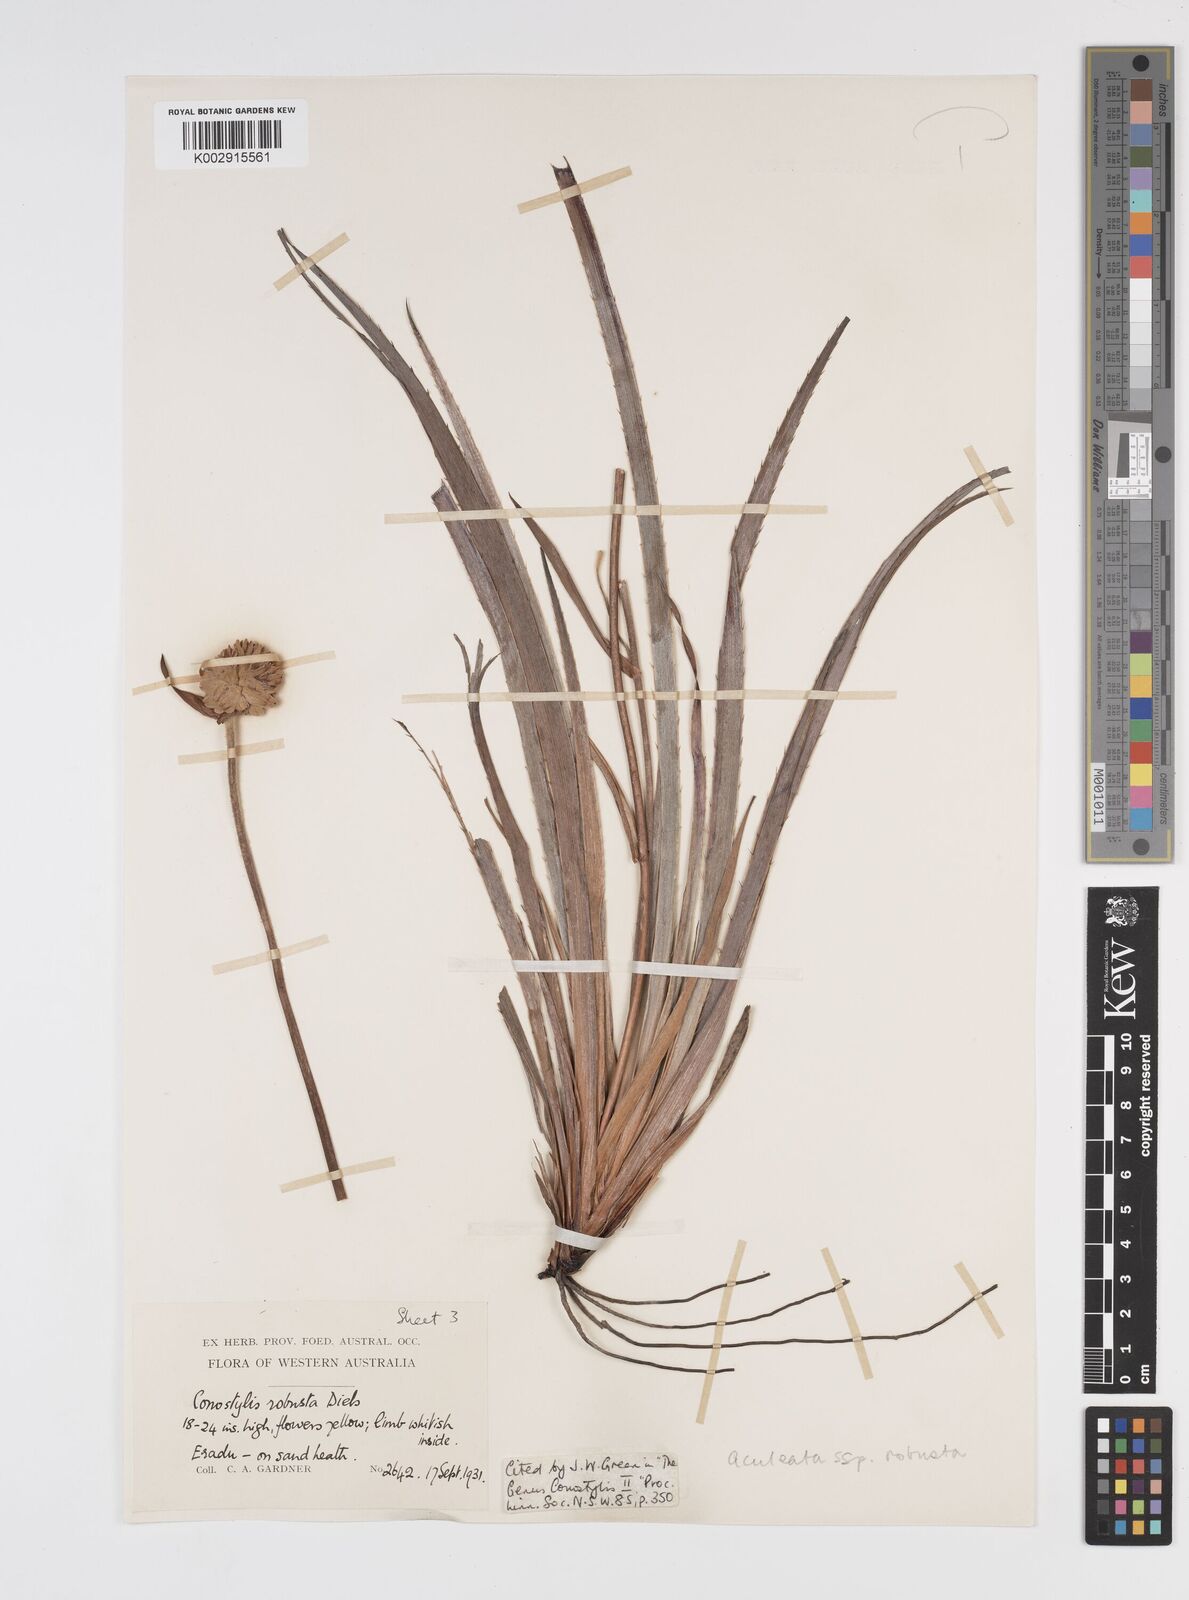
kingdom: Plantae
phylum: Tracheophyta
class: Liliopsida
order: Commelinales
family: Haemodoraceae
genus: Conostylis
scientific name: Conostylis robusta
